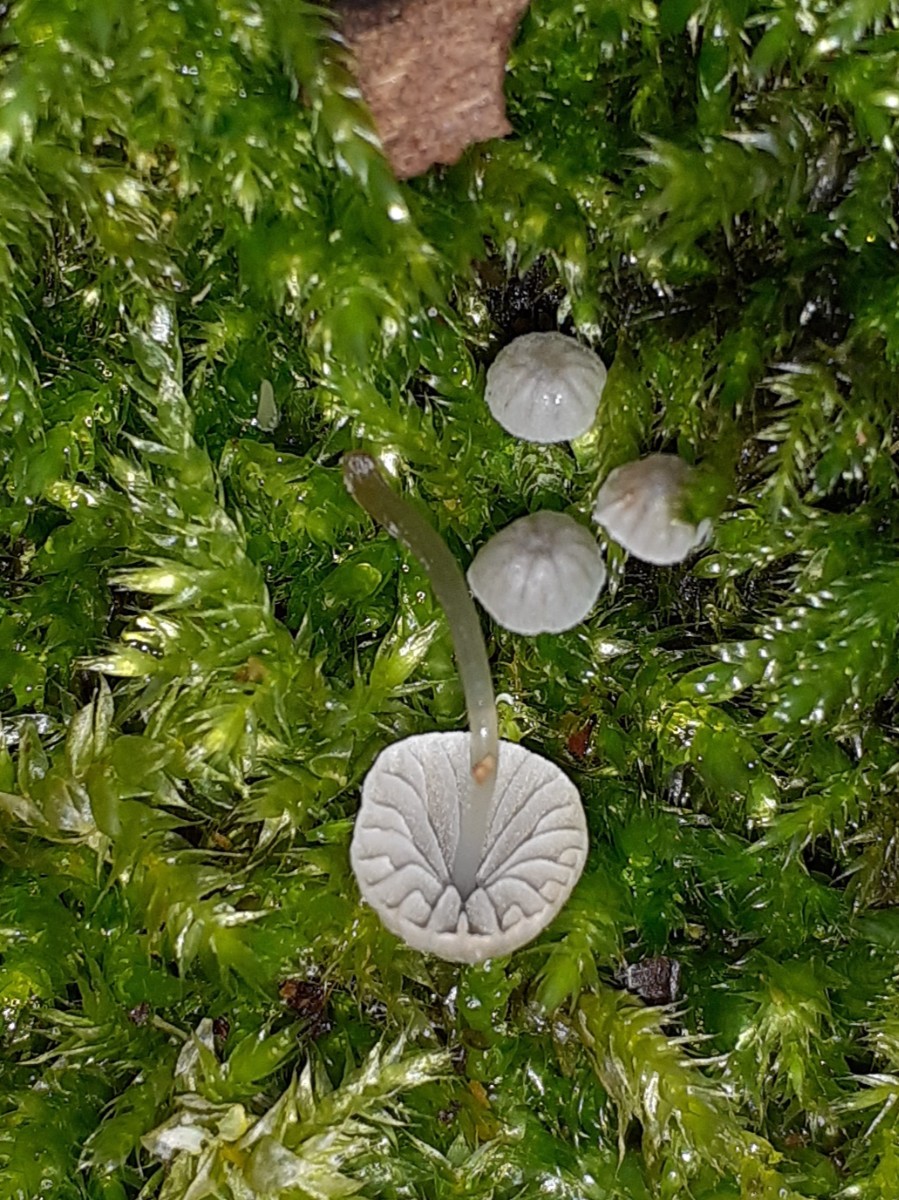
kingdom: Fungi
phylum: Basidiomycota
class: Agaricomycetes
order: Agaricales
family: Mycenaceae
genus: Mycena
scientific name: Mycena pseudocorticola
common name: gråblå bark-huesvamp
